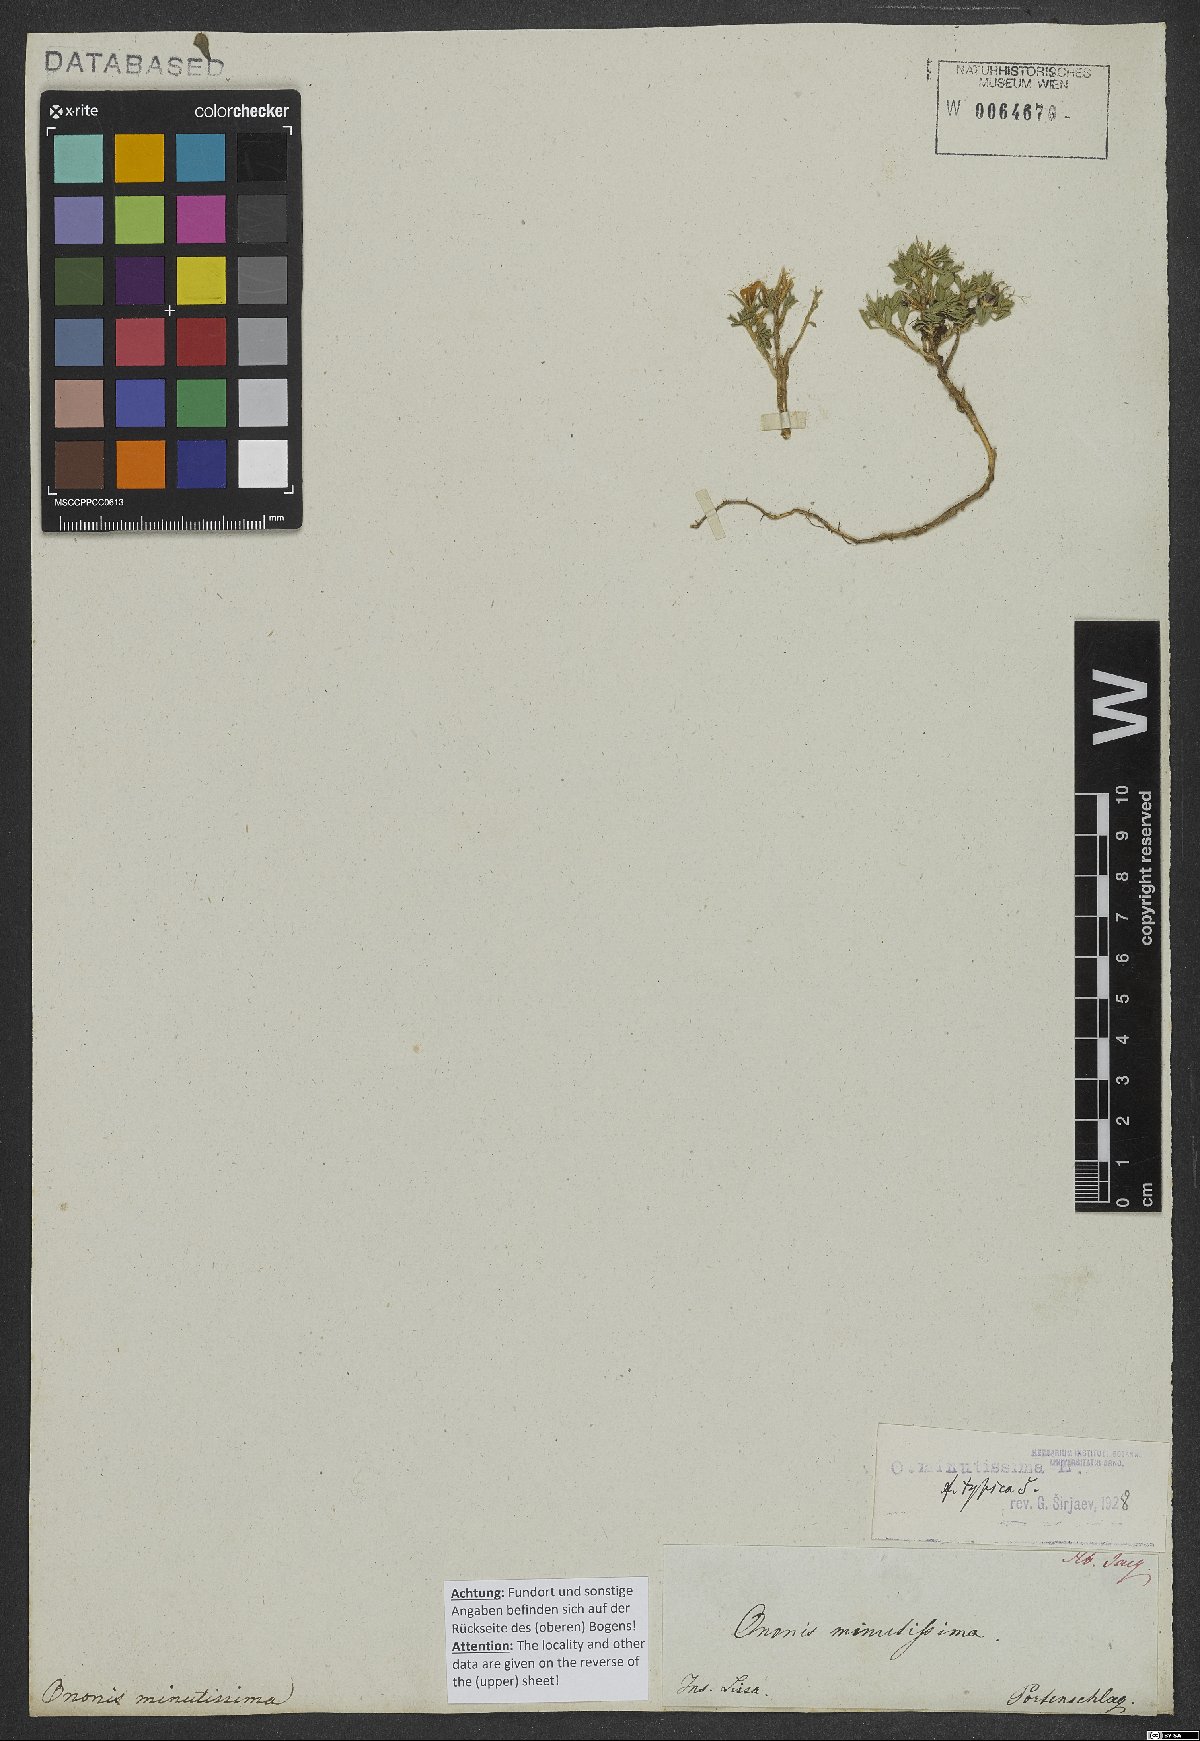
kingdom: Plantae
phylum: Tracheophyta
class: Magnoliopsida
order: Fabales
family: Fabaceae
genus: Ononis
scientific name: Ononis minutissima
